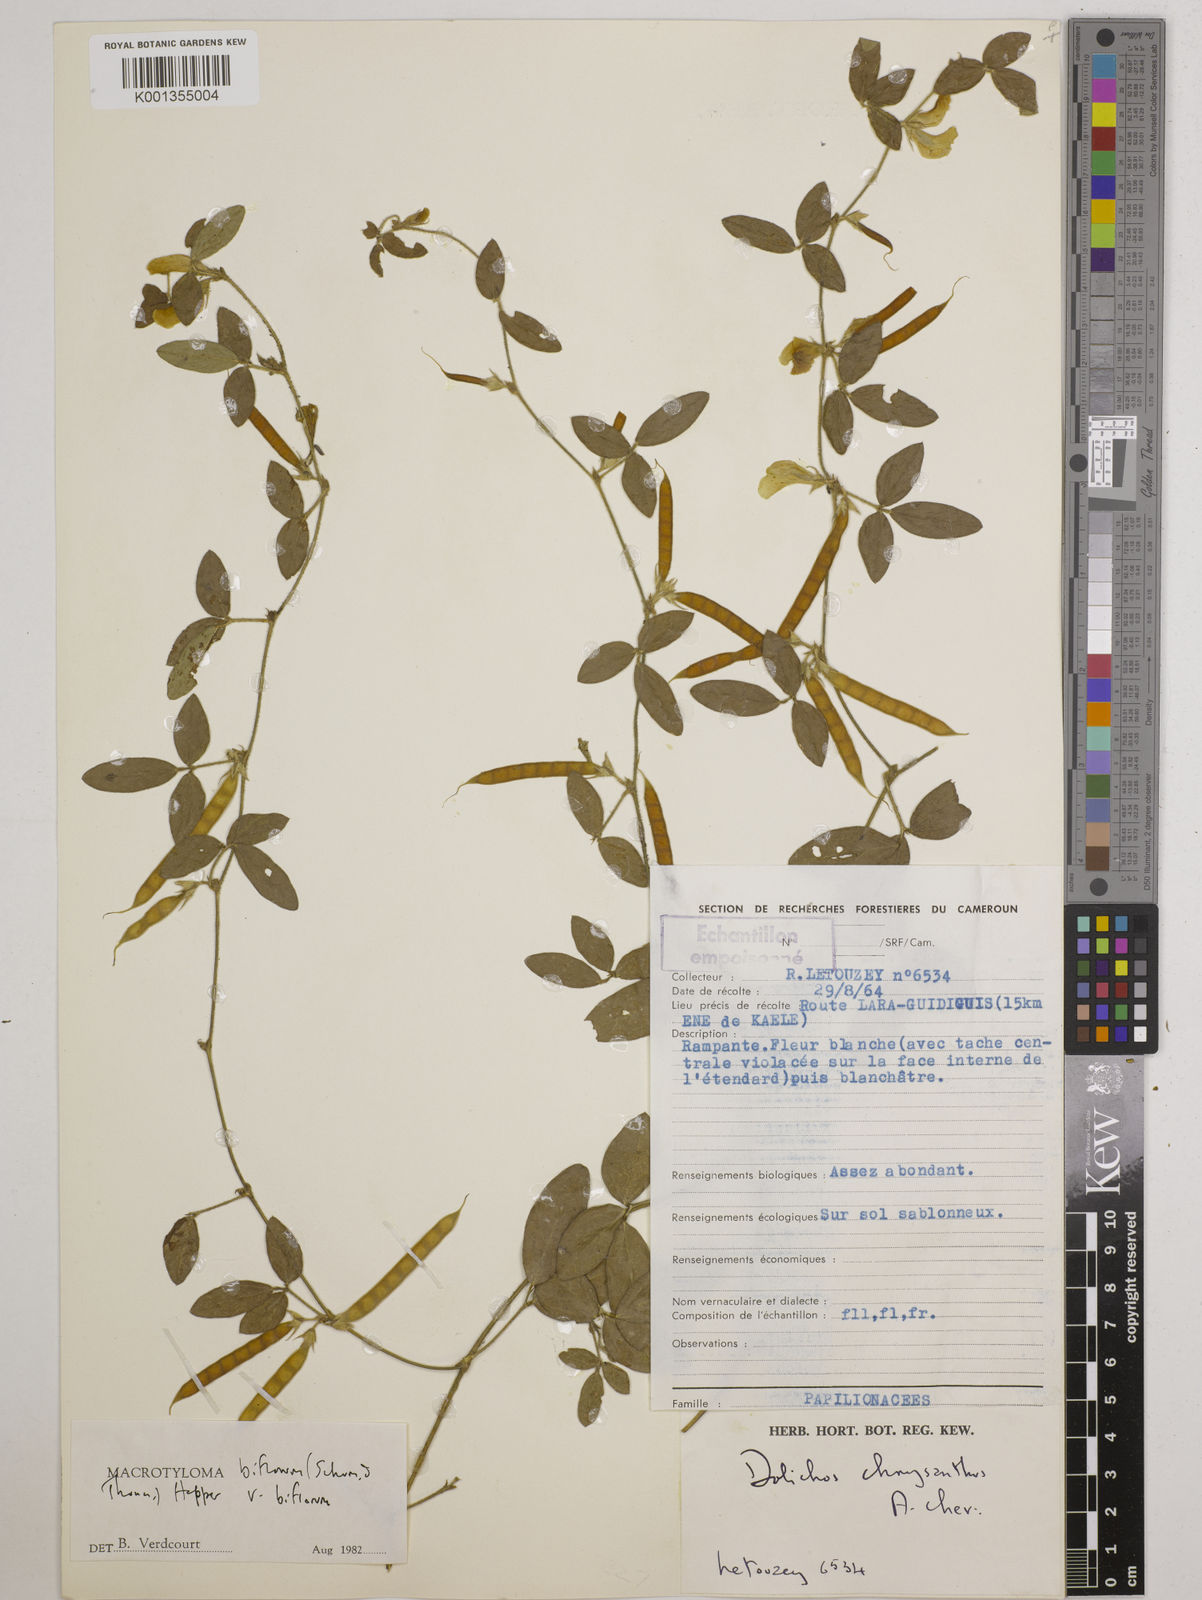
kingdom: Plantae
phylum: Tracheophyta
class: Magnoliopsida
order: Fabales
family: Fabaceae
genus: Macrotyloma
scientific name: Macrotyloma biflorum
